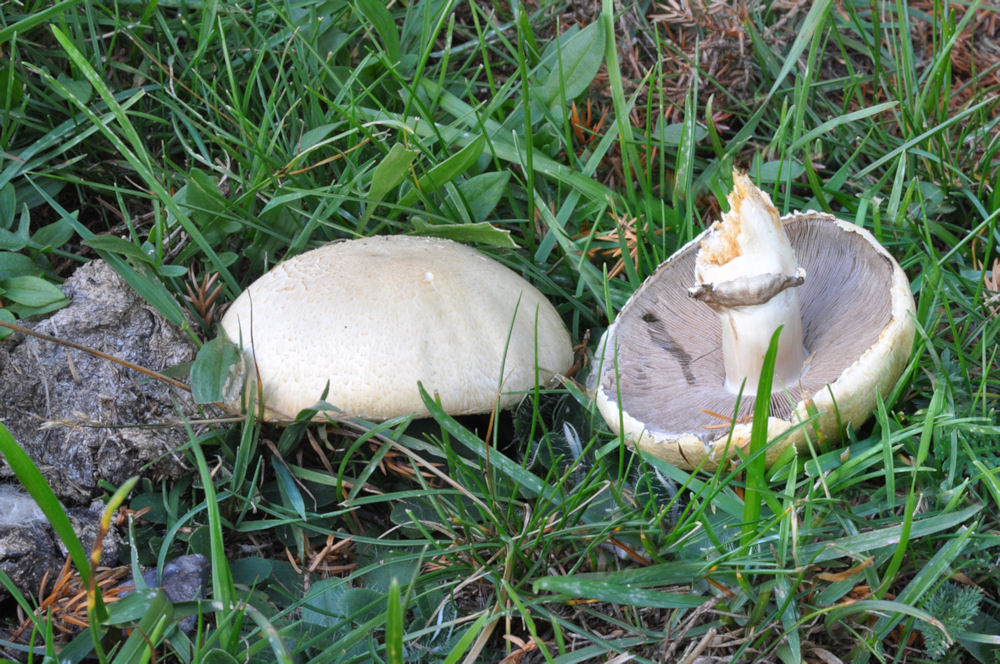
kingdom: Fungi
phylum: Basidiomycota
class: Agaricomycetes
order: Agaricales
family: Agaricaceae
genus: Agaricus
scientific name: Agaricus arvensis
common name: ager-champignon
